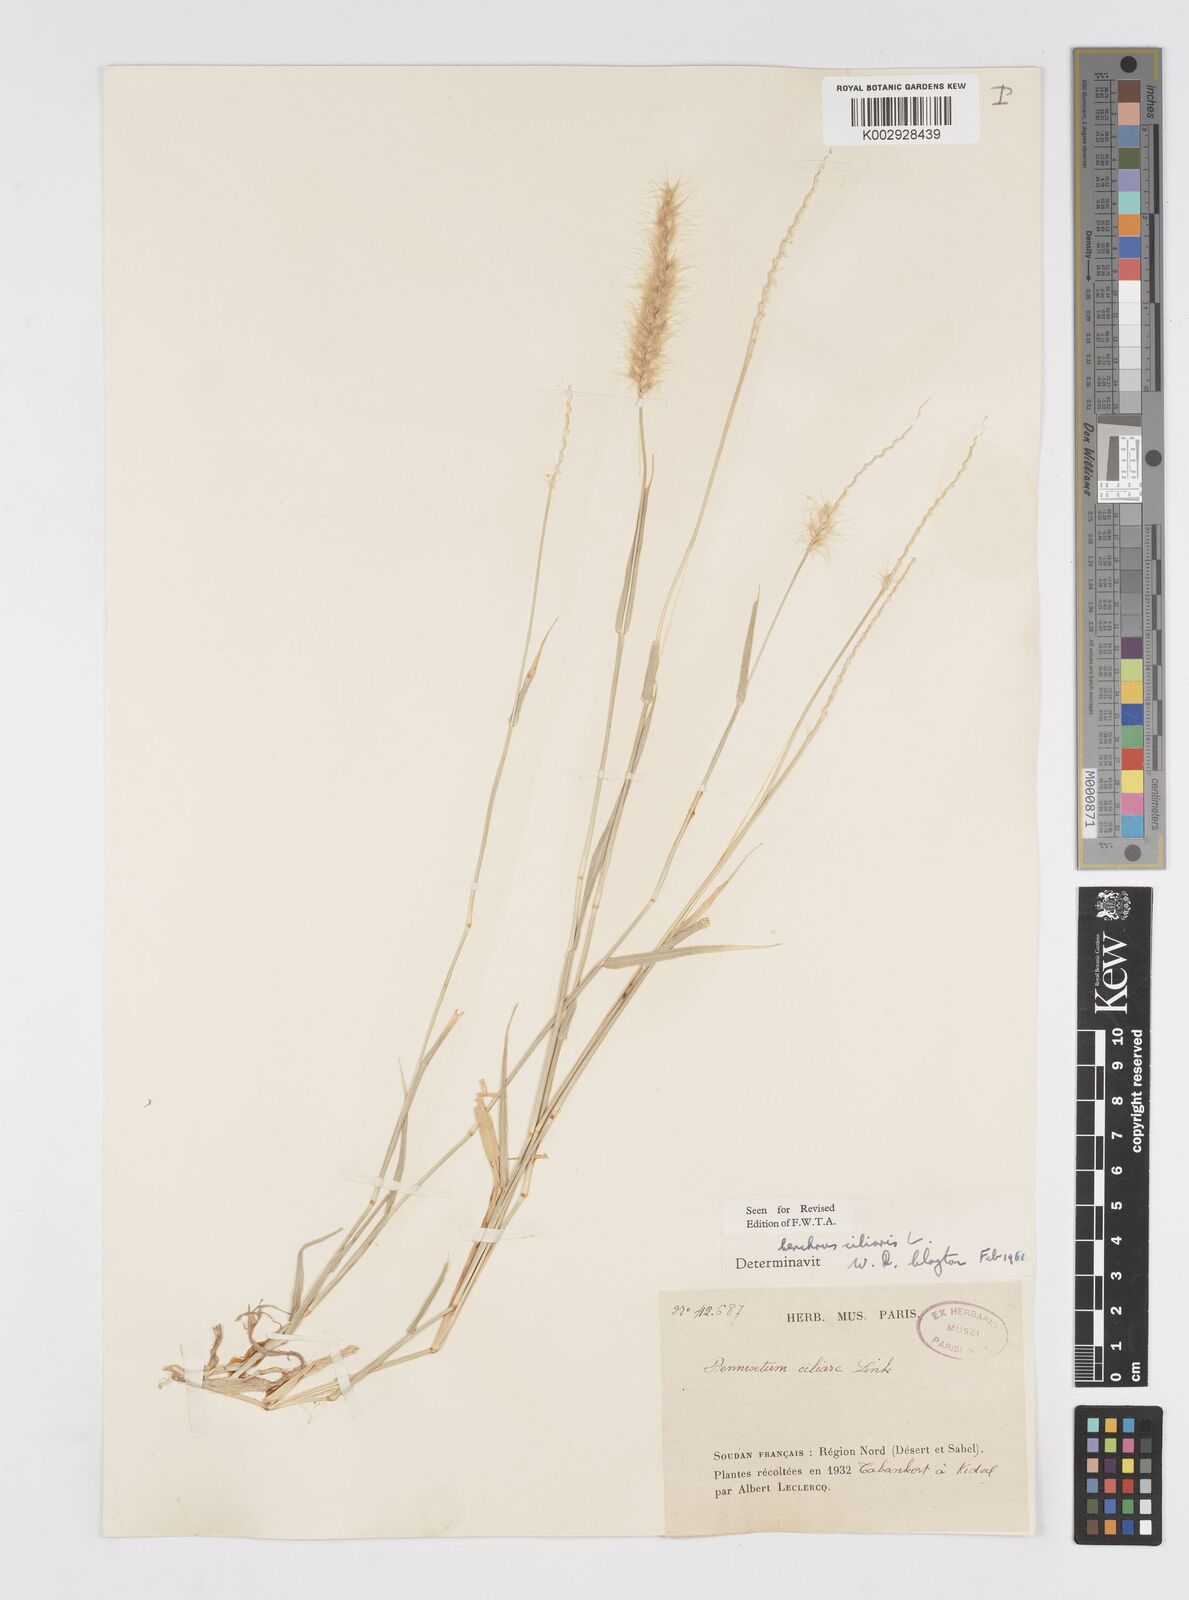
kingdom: Plantae
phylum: Tracheophyta
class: Liliopsida
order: Poales
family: Poaceae
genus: Cenchrus
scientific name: Cenchrus ciliaris
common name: Buffelgrass
